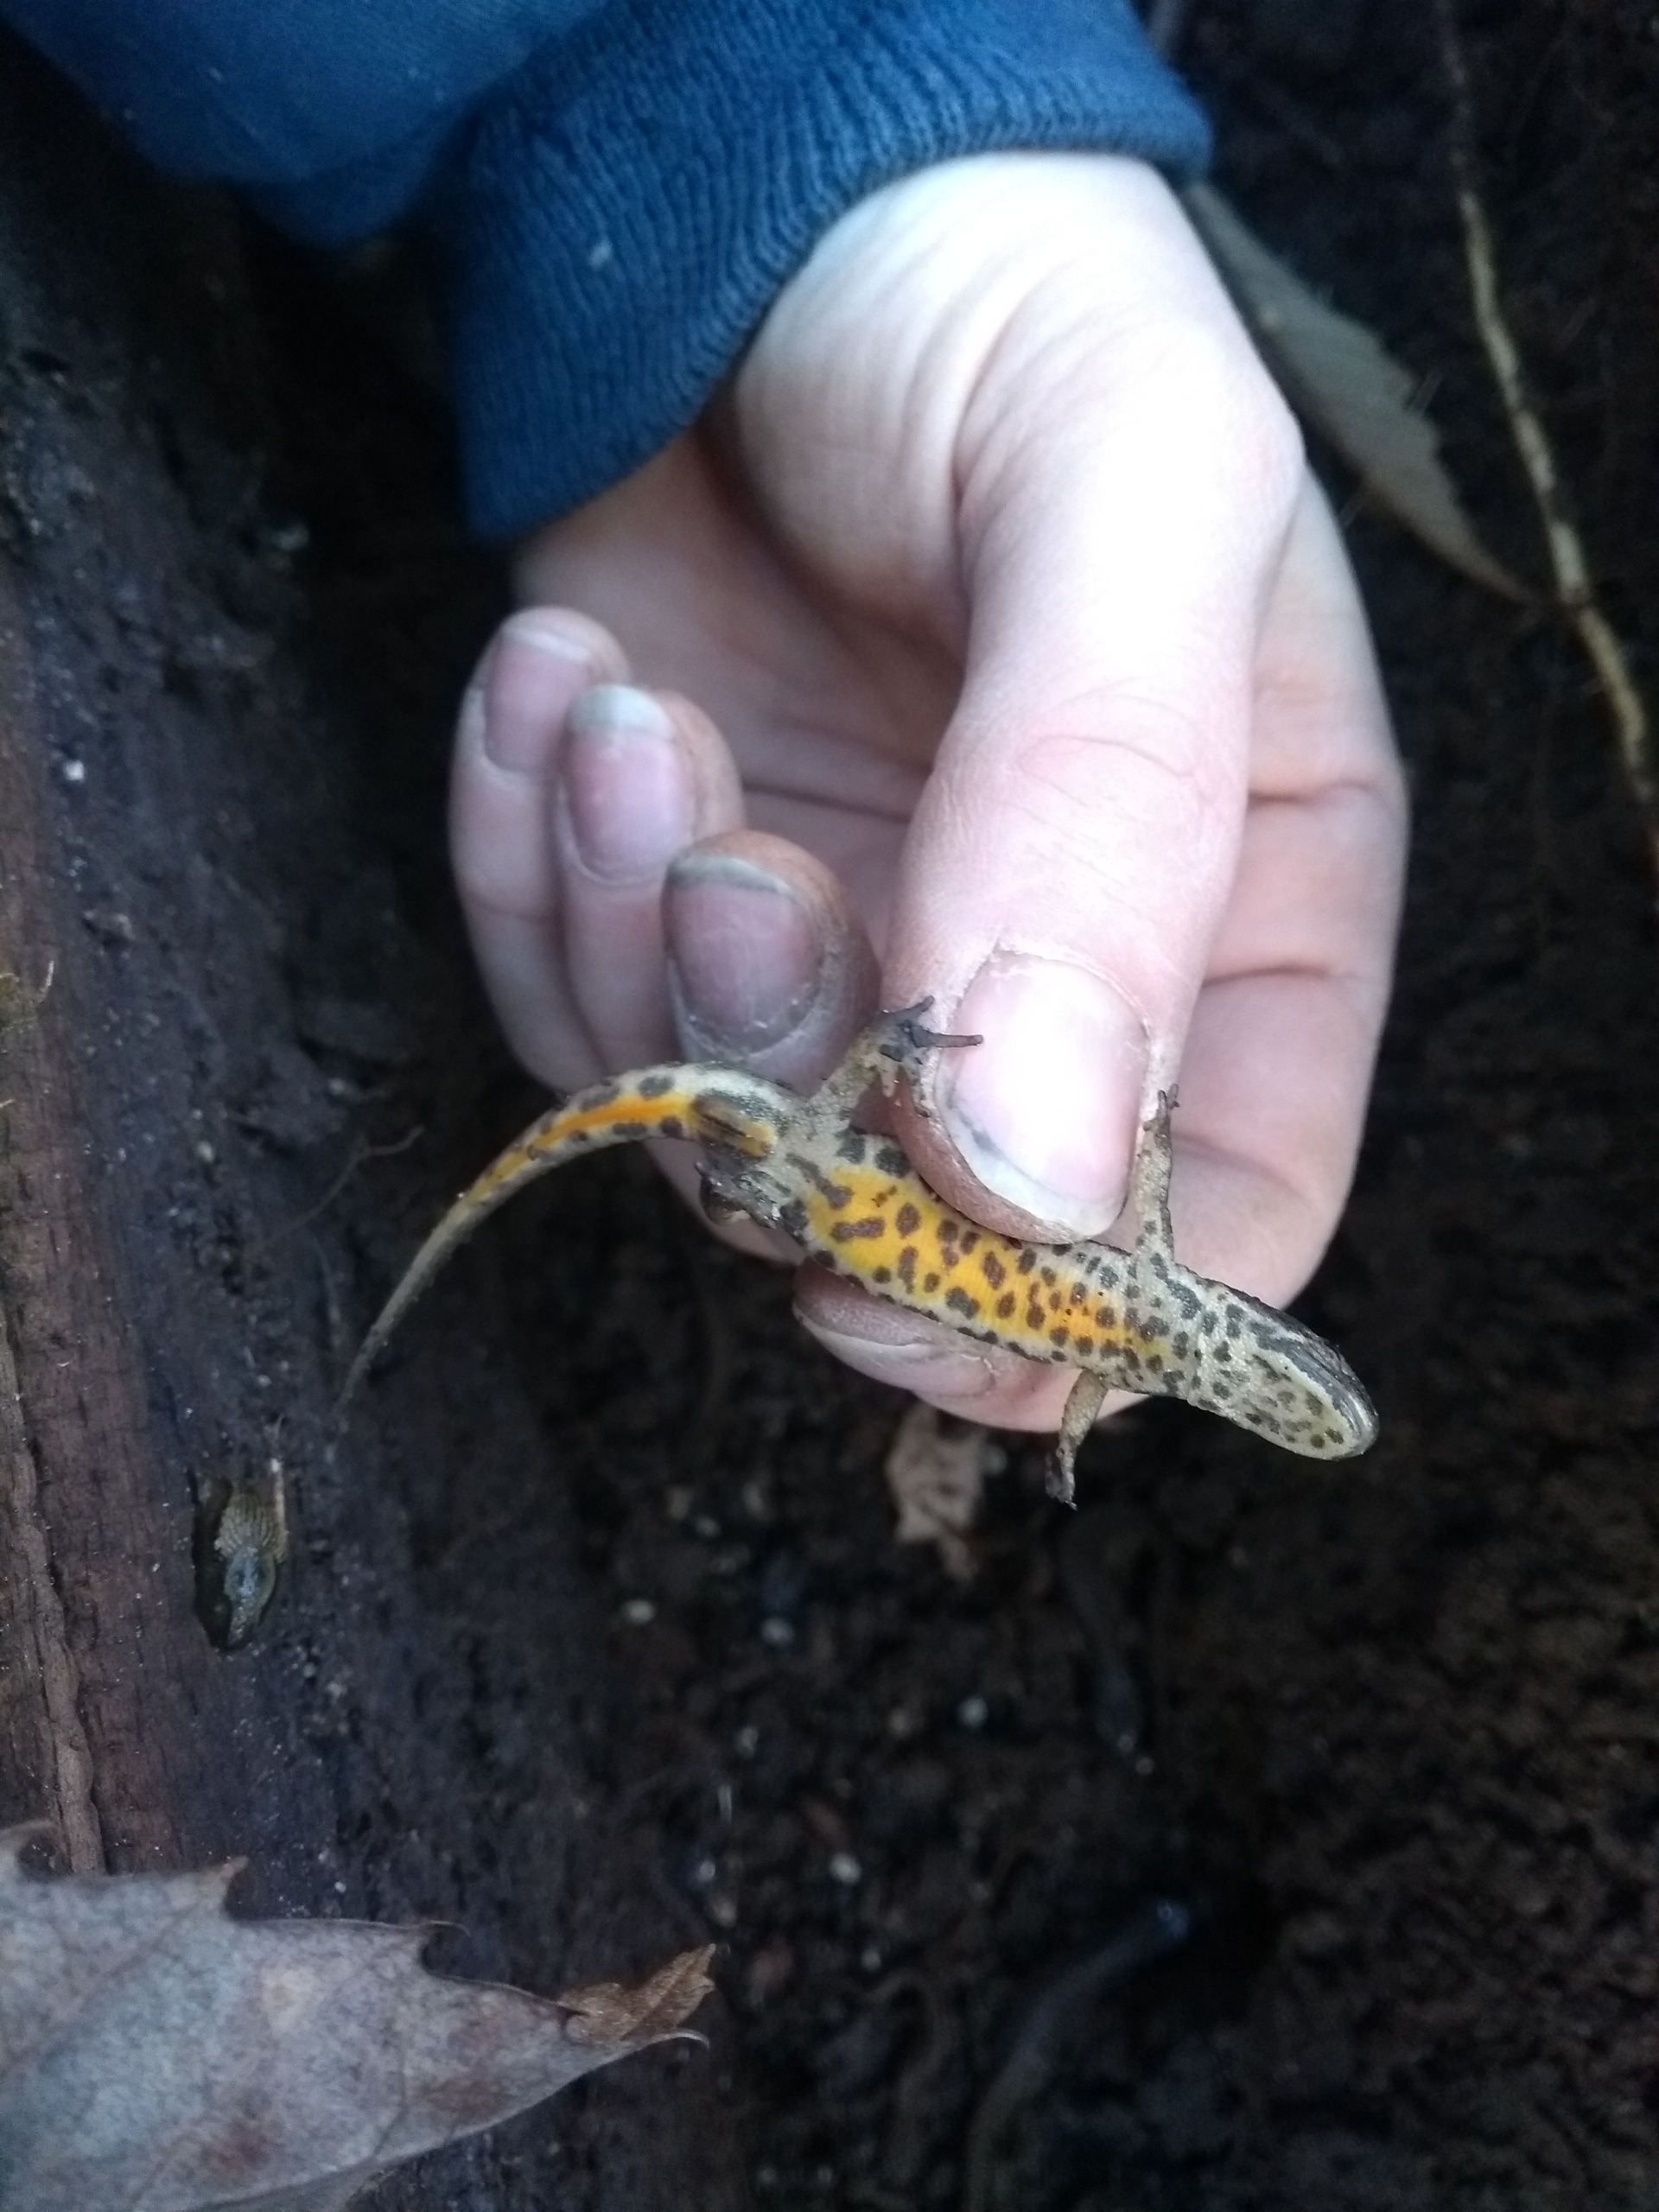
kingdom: Animalia
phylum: Chordata
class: Amphibia
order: Caudata
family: Salamandridae
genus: Lissotriton
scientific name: Lissotriton vulgaris
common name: Lille vandsalamander
